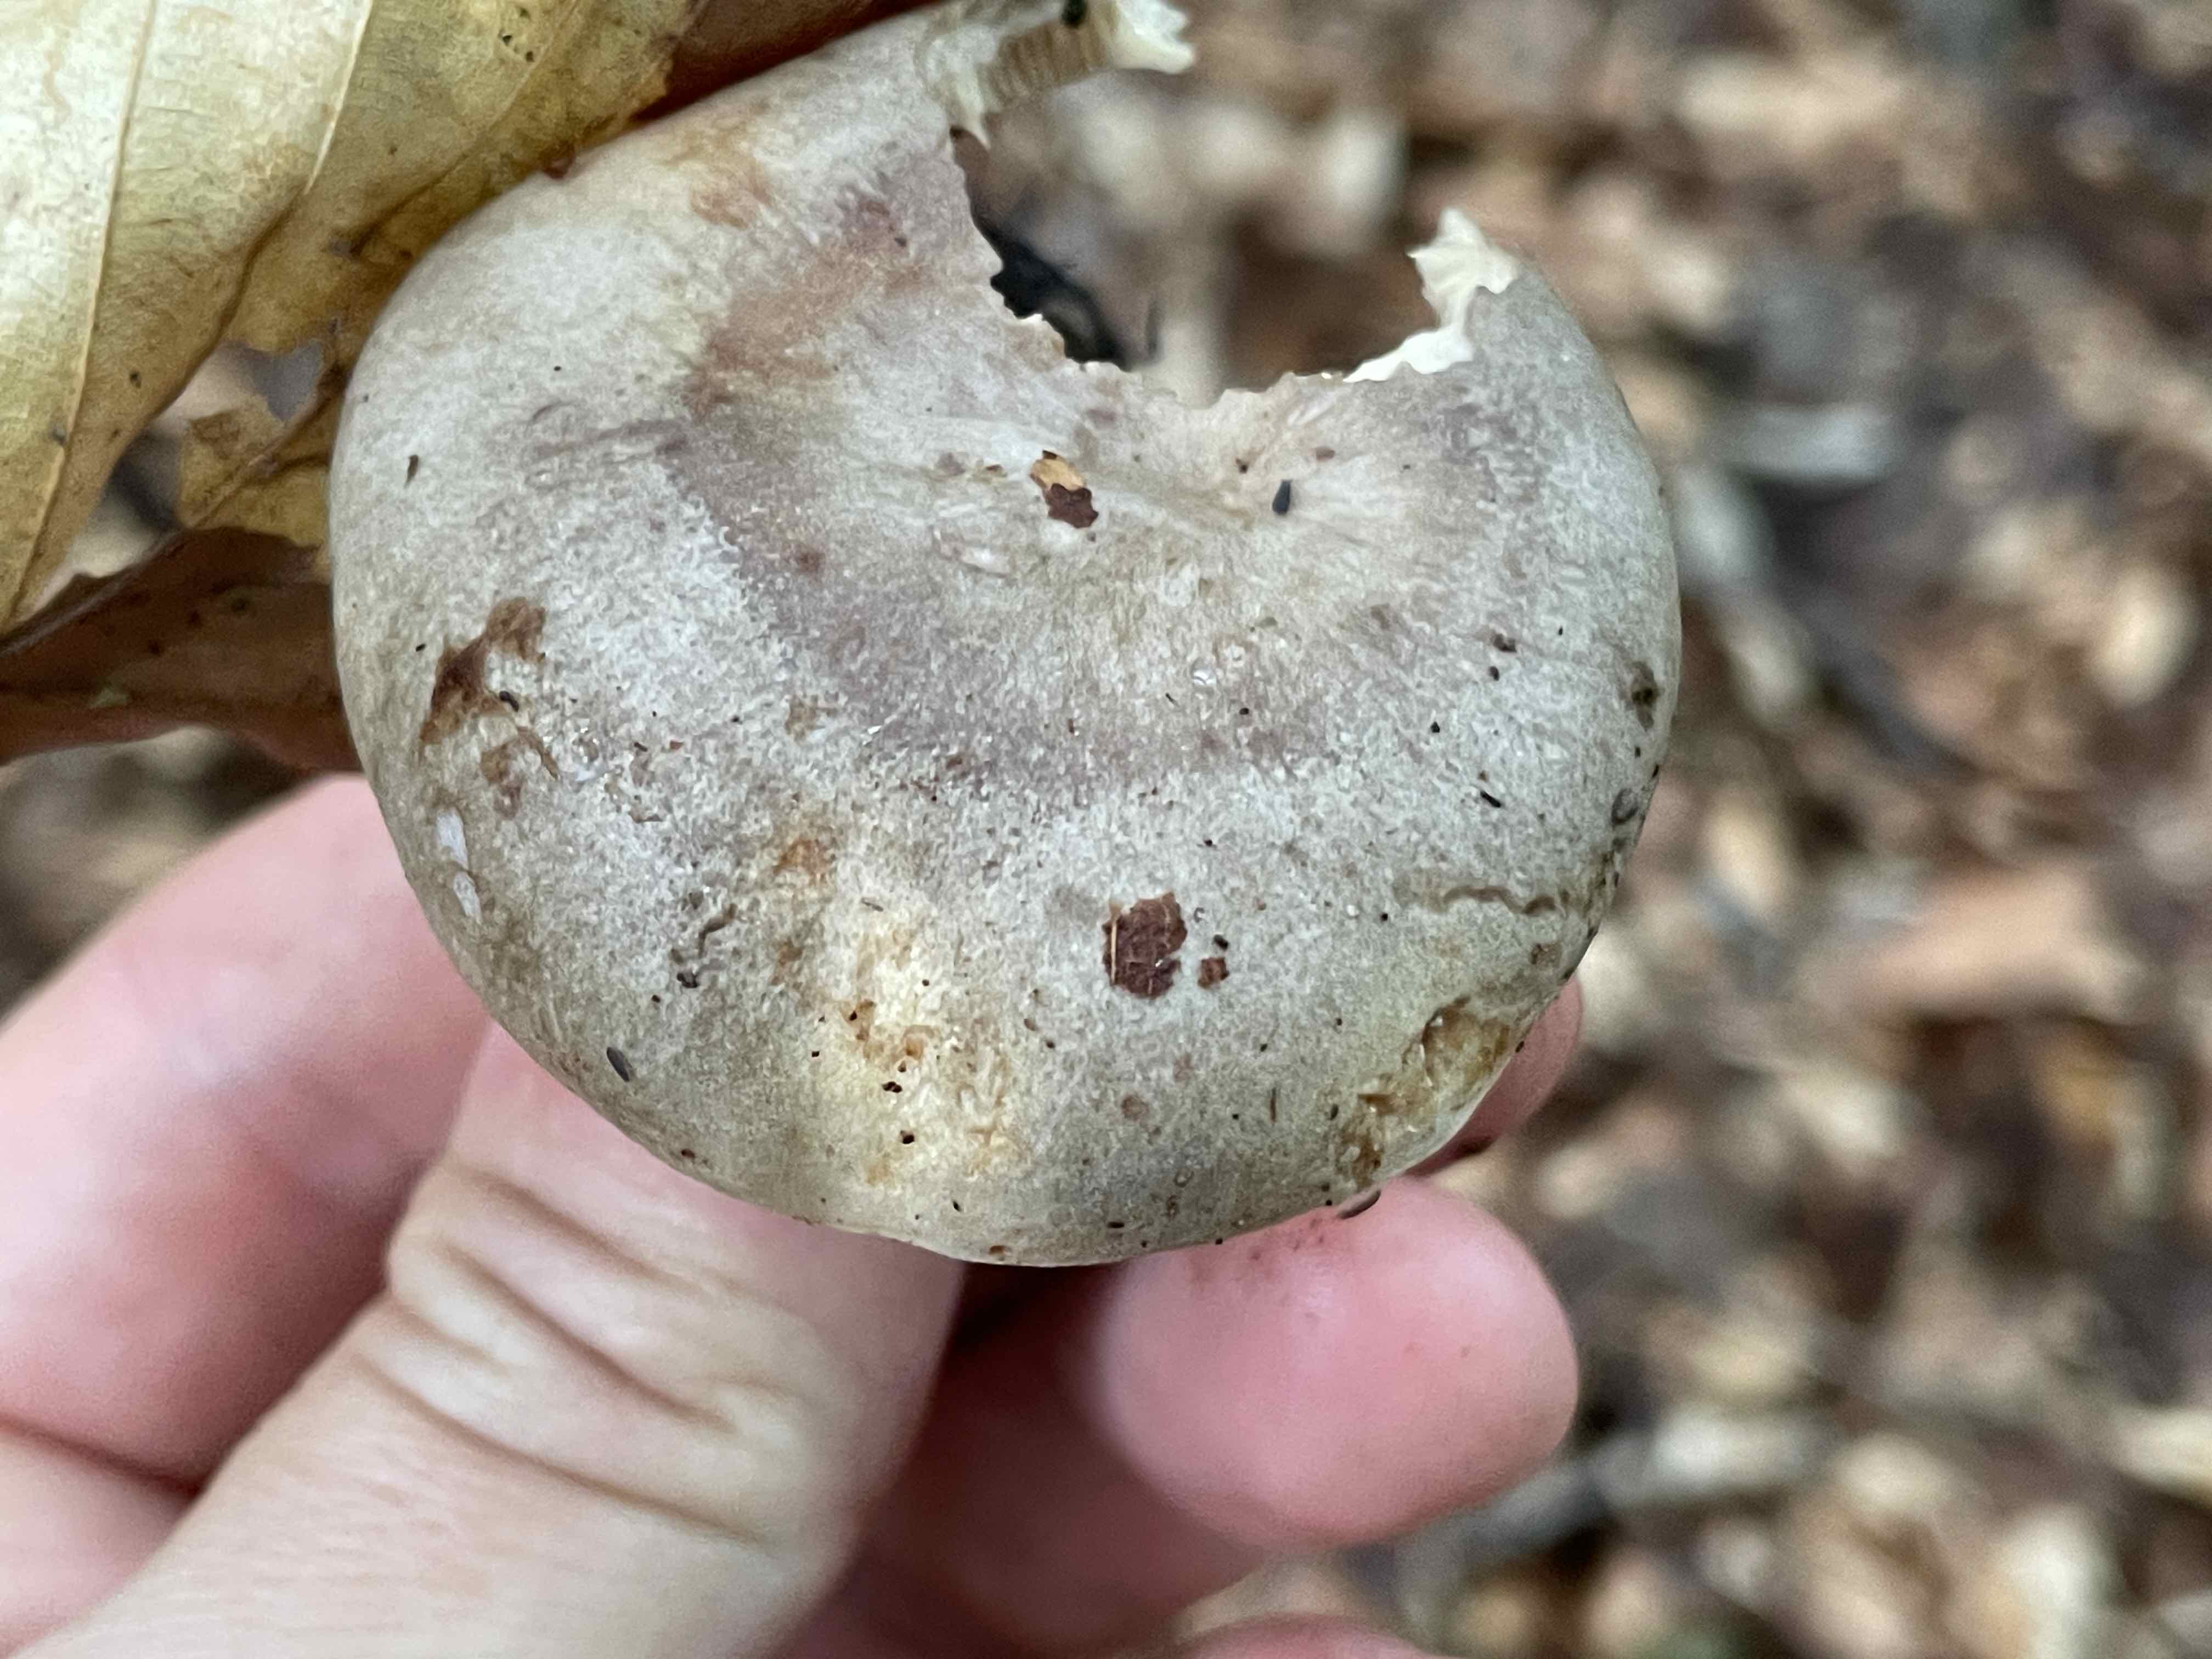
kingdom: Fungi
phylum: Basidiomycota
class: Agaricomycetes
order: Russulales
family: Russulaceae
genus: Lactarius
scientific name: Lactarius blennius
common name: dråbeplettet mælkehat
